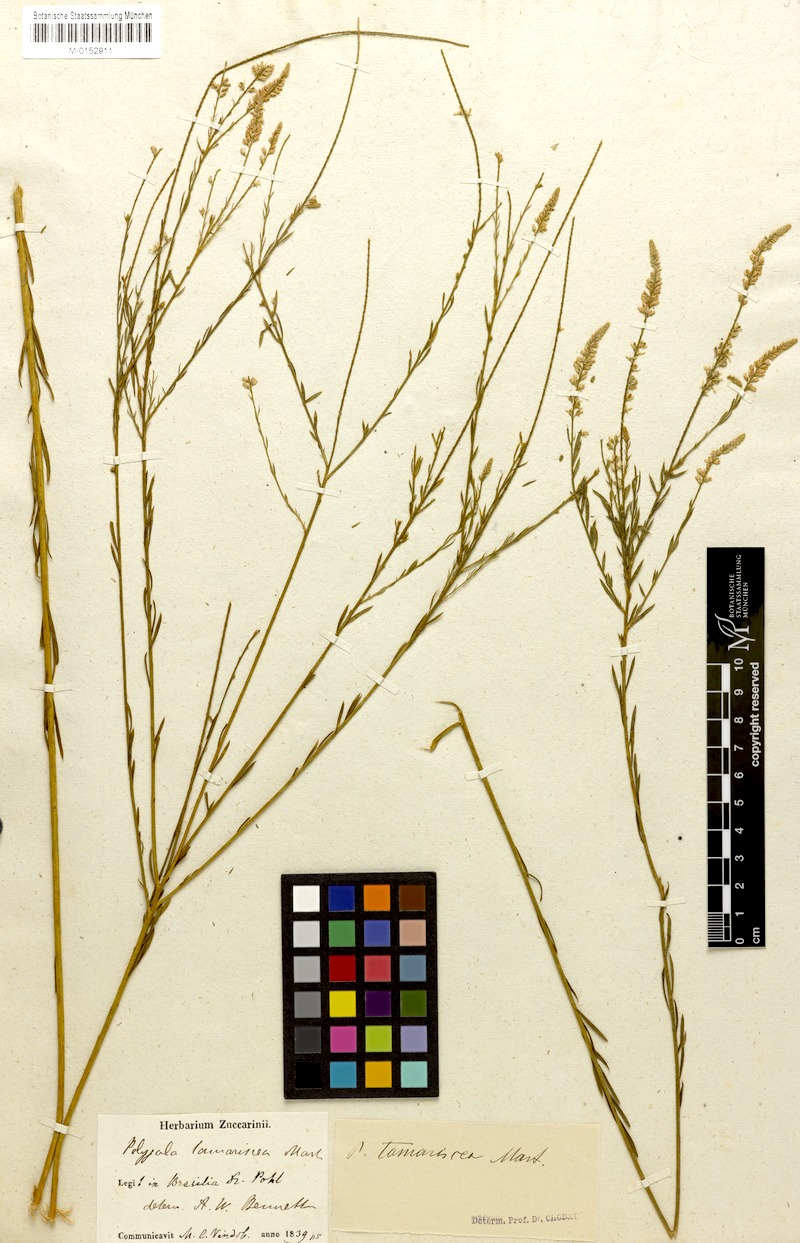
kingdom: Plantae
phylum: Tracheophyta
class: Magnoliopsida
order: Fabales
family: Polygalaceae
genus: Polygala
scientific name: Polygala tamariscca
